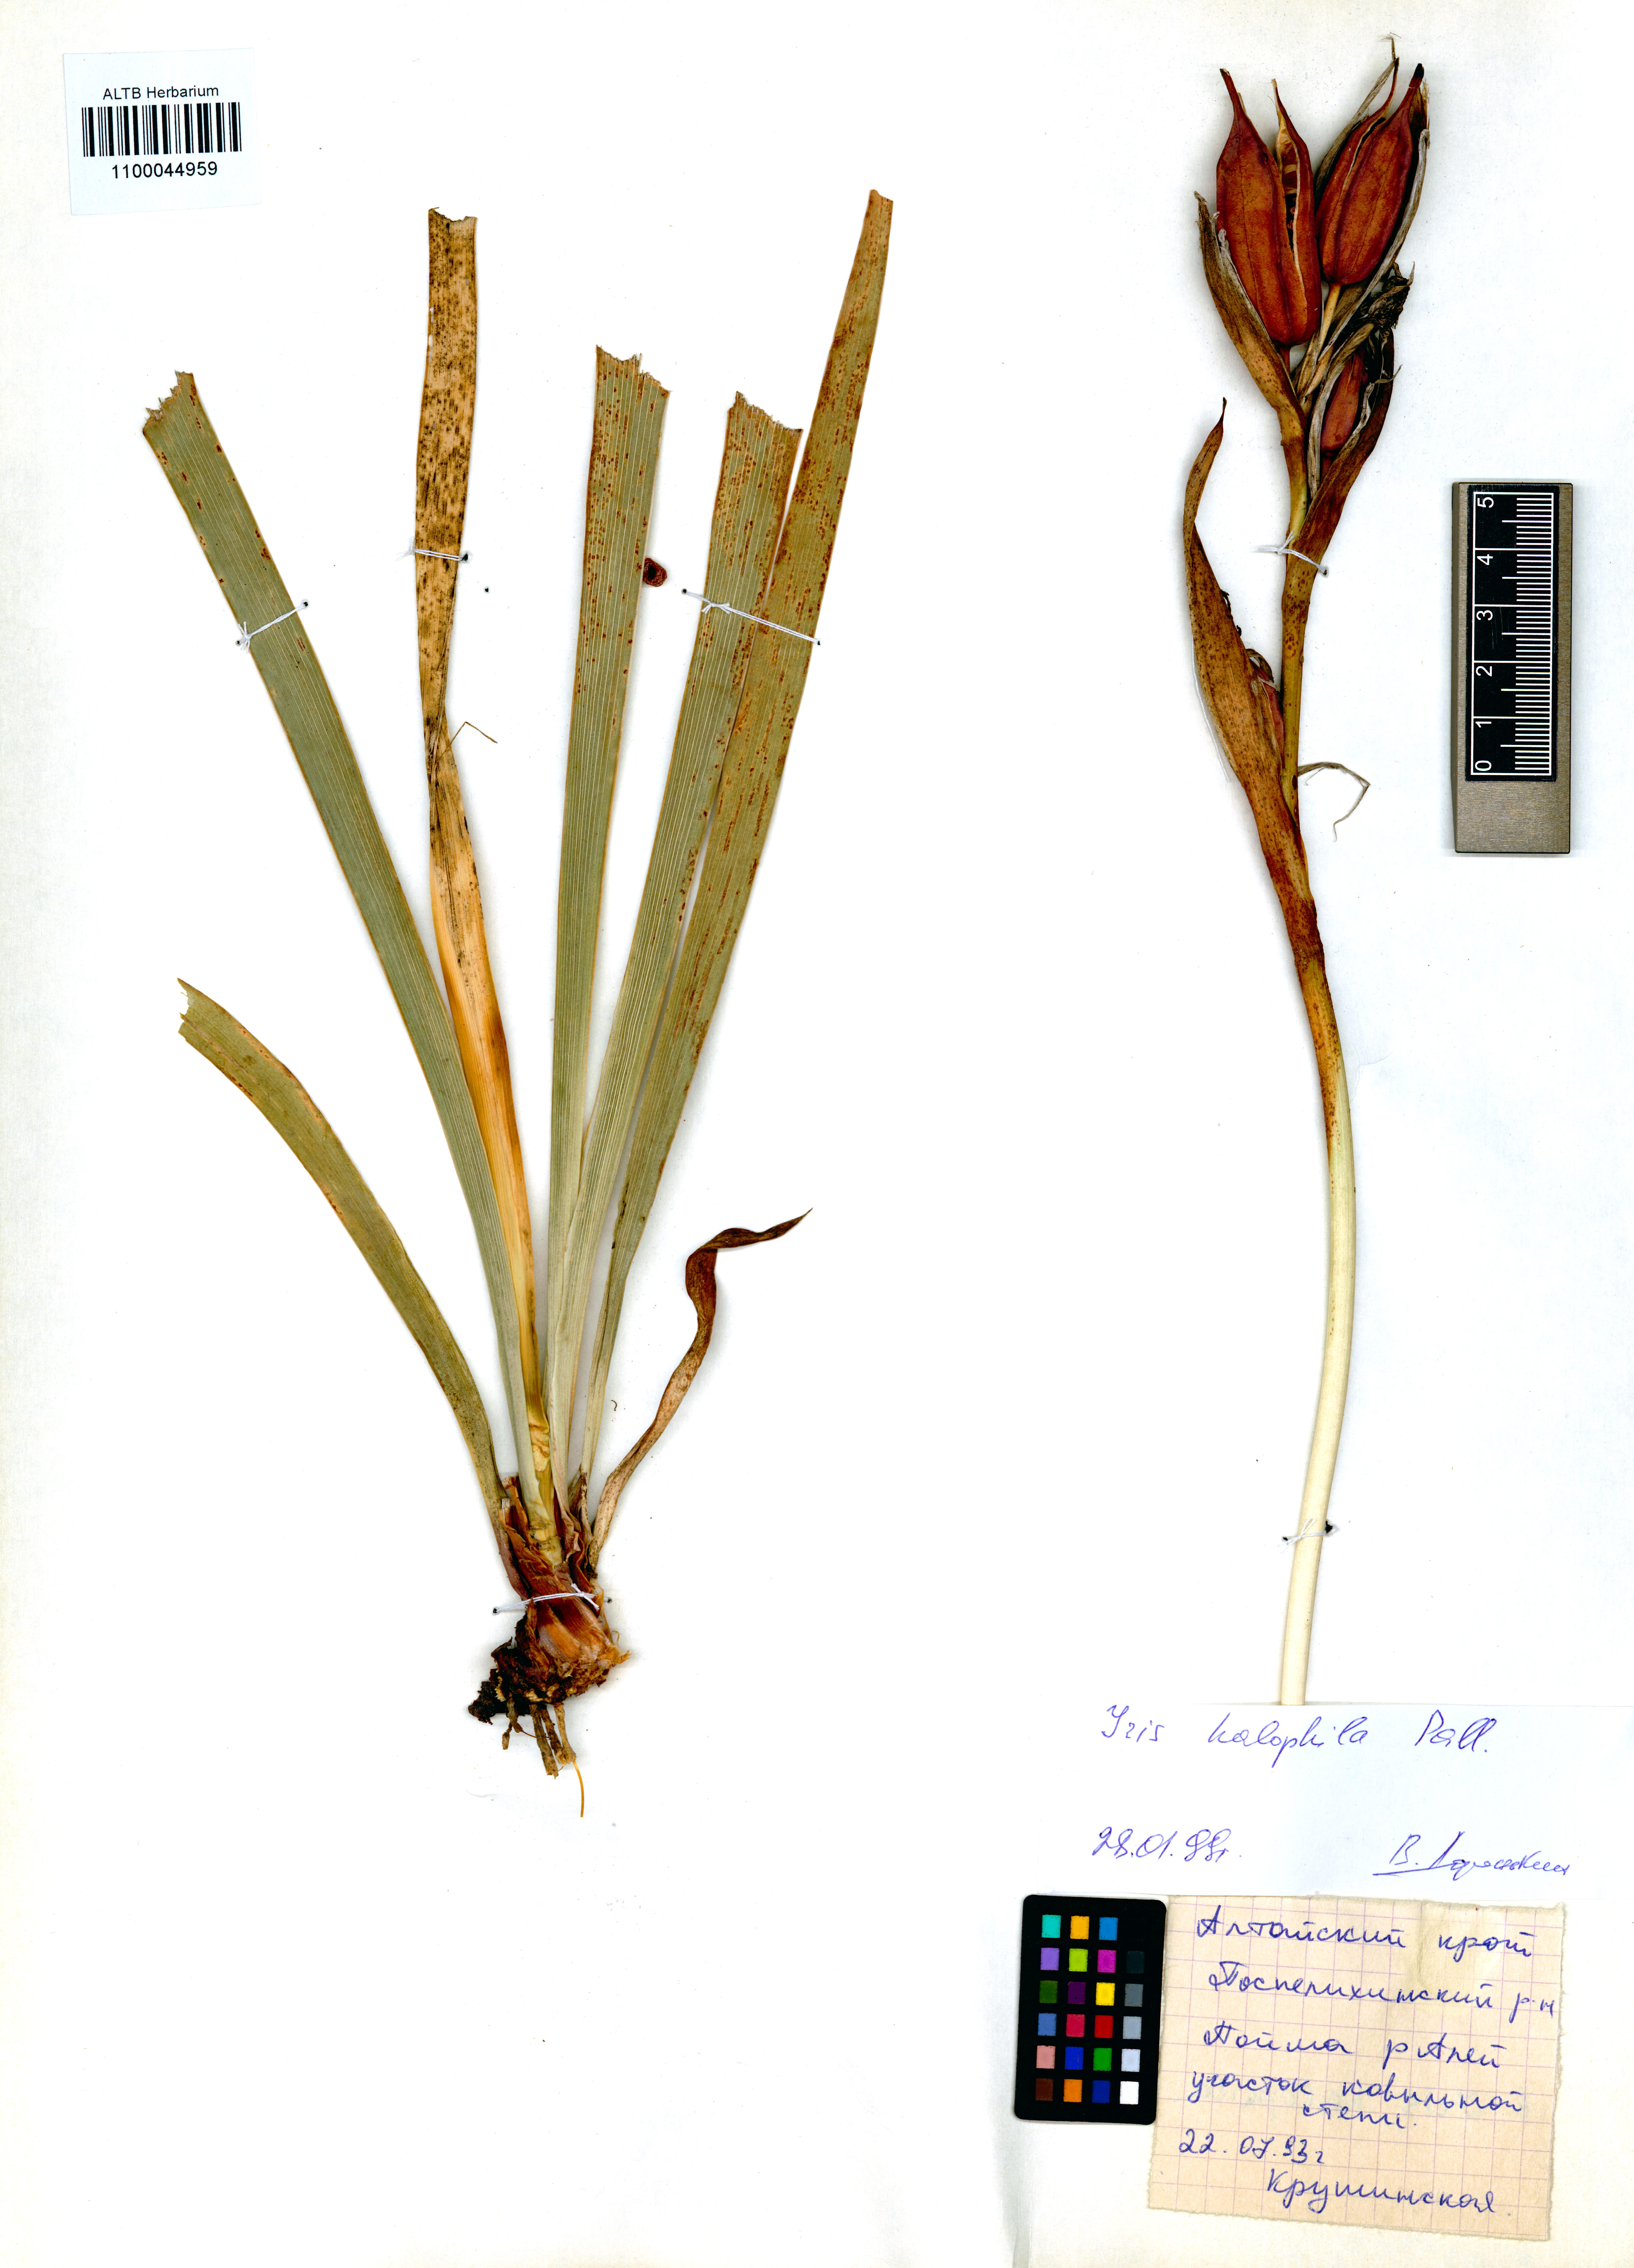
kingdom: Plantae
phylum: Tracheophyta
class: Liliopsida
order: Asparagales
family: Iridaceae
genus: Iris
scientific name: Iris halophila
